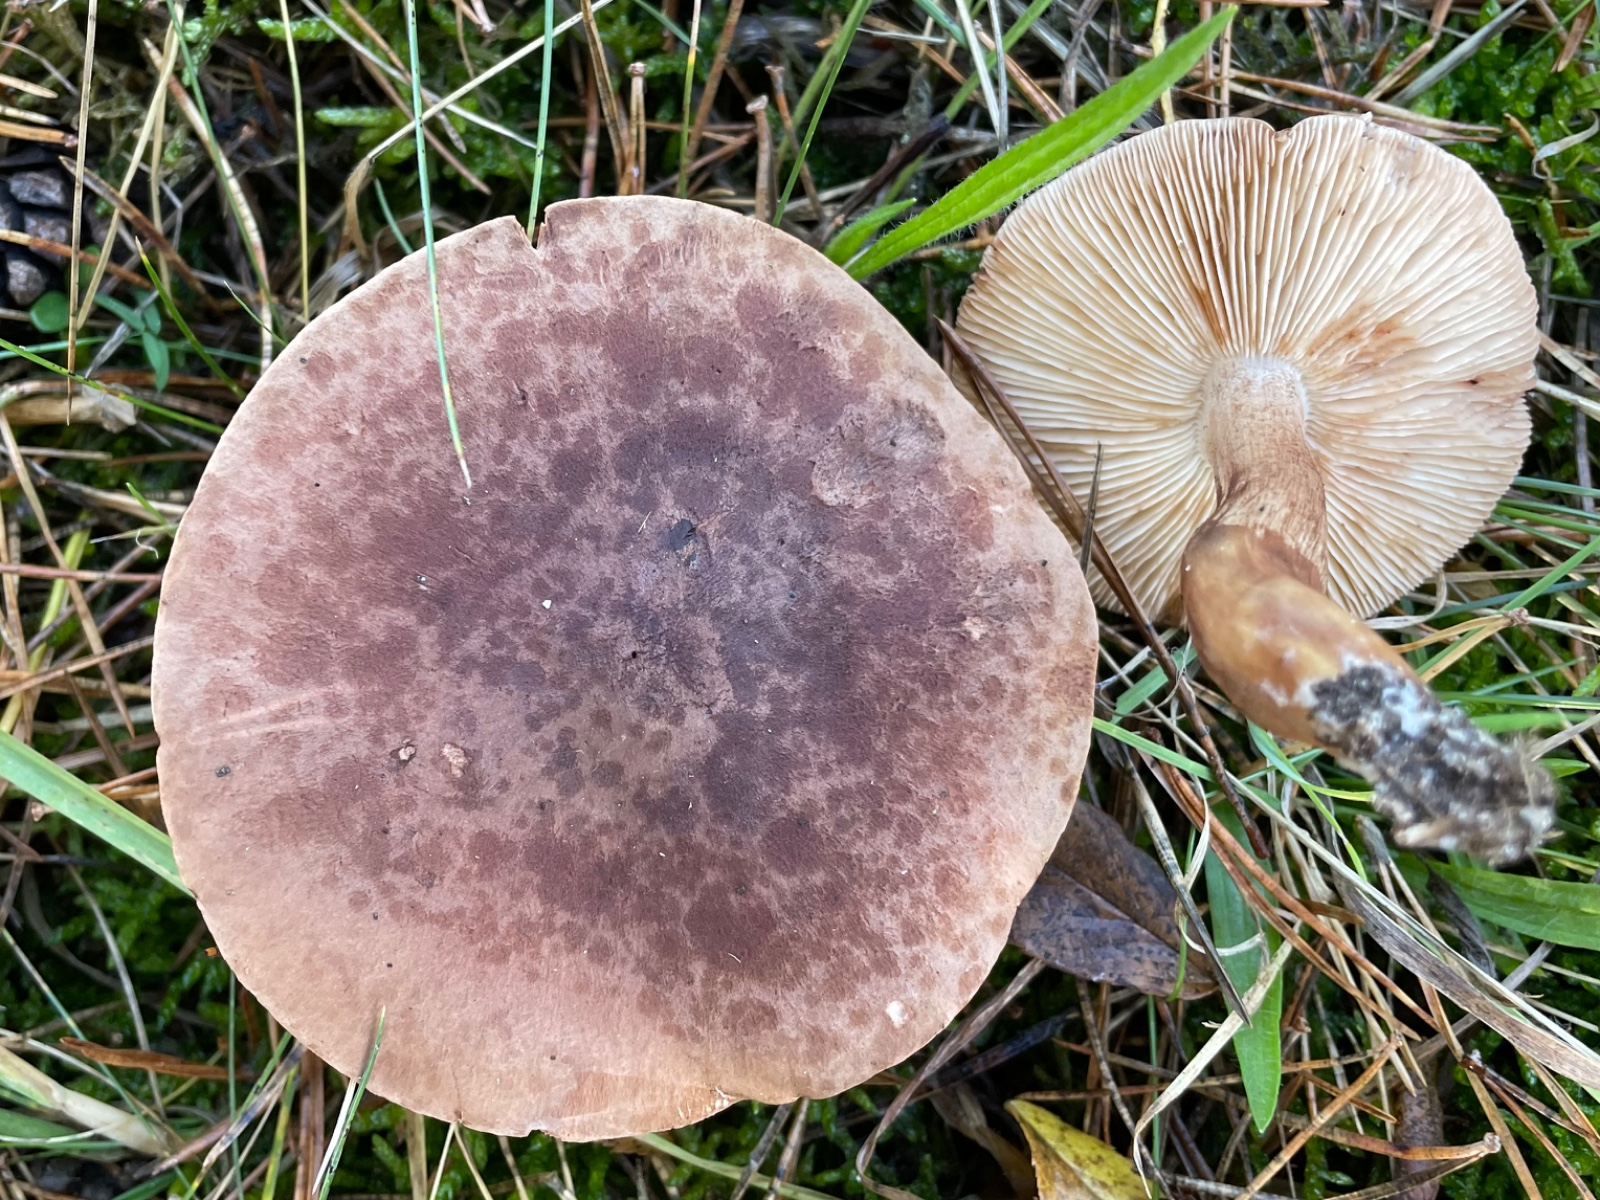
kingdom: Fungi
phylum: Basidiomycota
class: Agaricomycetes
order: Agaricales
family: Tricholomataceae
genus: Tricholoma
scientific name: Tricholoma imbricatum
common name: skællet ridderhat
